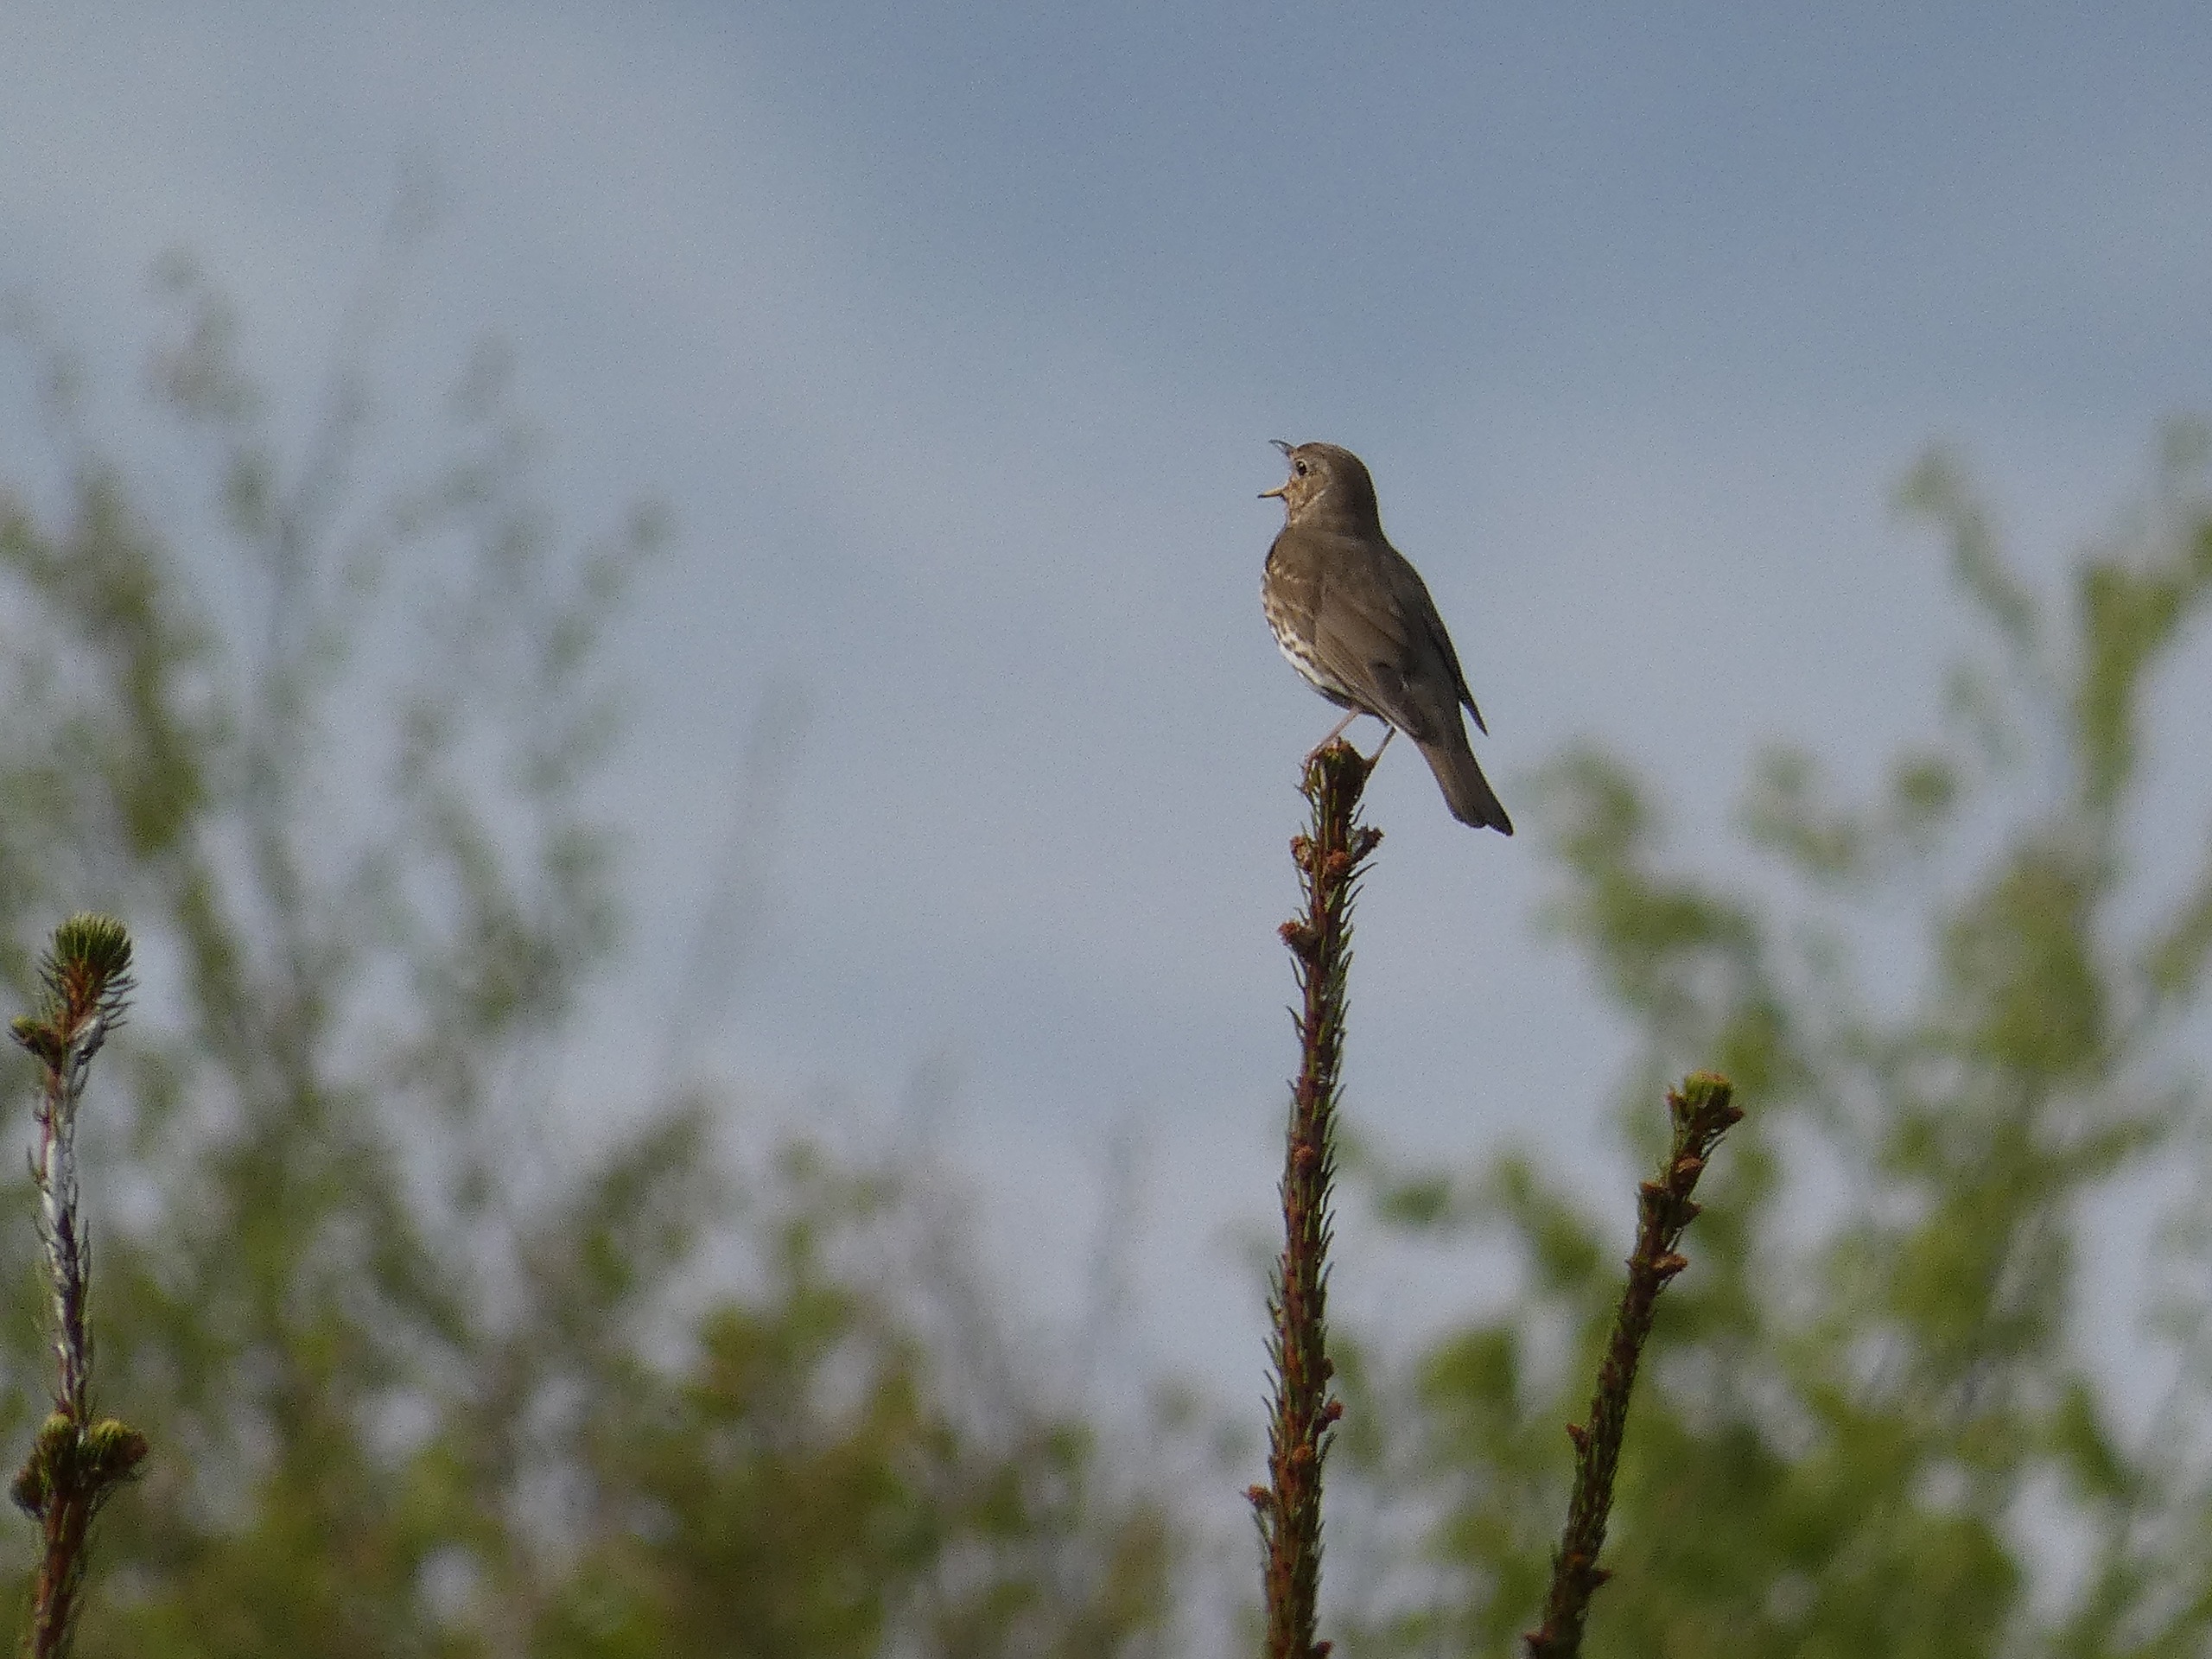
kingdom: Animalia
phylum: Chordata
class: Aves
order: Passeriformes
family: Turdidae
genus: Turdus
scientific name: Turdus philomelos
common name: Sangdrossel
